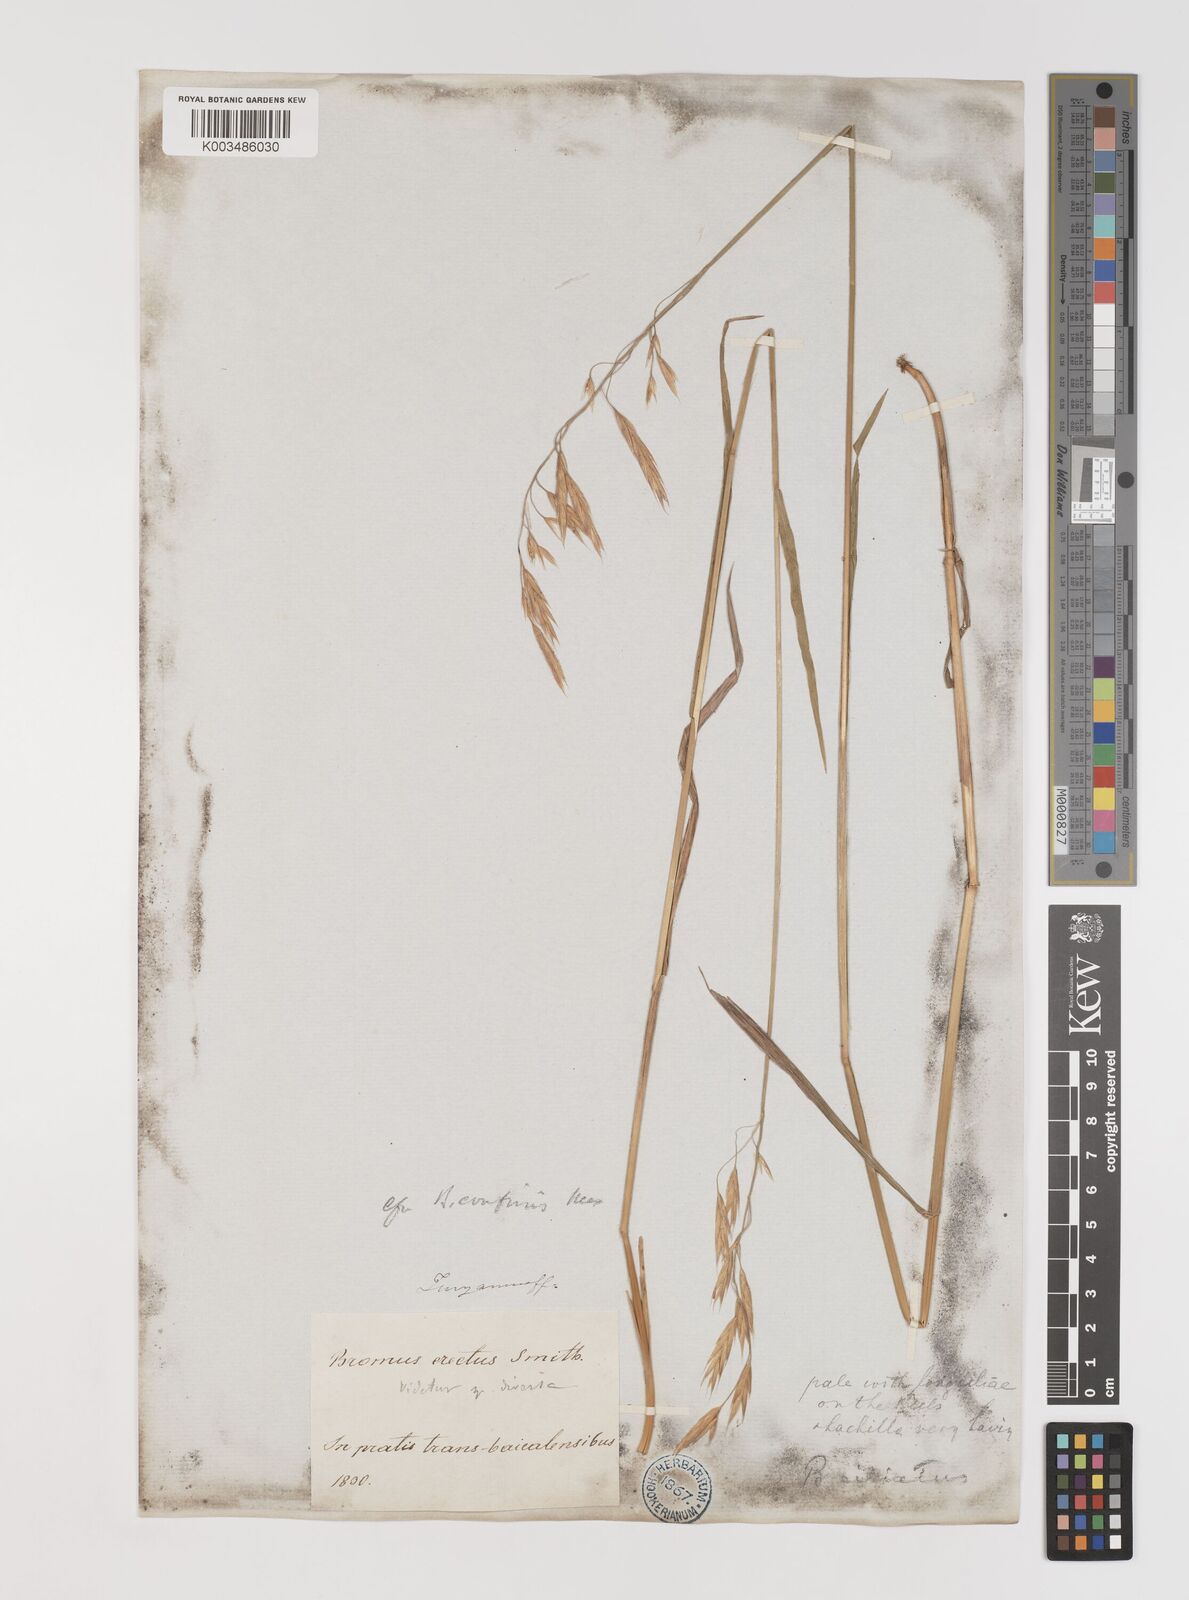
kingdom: Plantae
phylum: Tracheophyta
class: Liliopsida
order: Poales
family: Poaceae
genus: Bromus
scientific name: Bromus inermis
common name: Smooth brome
